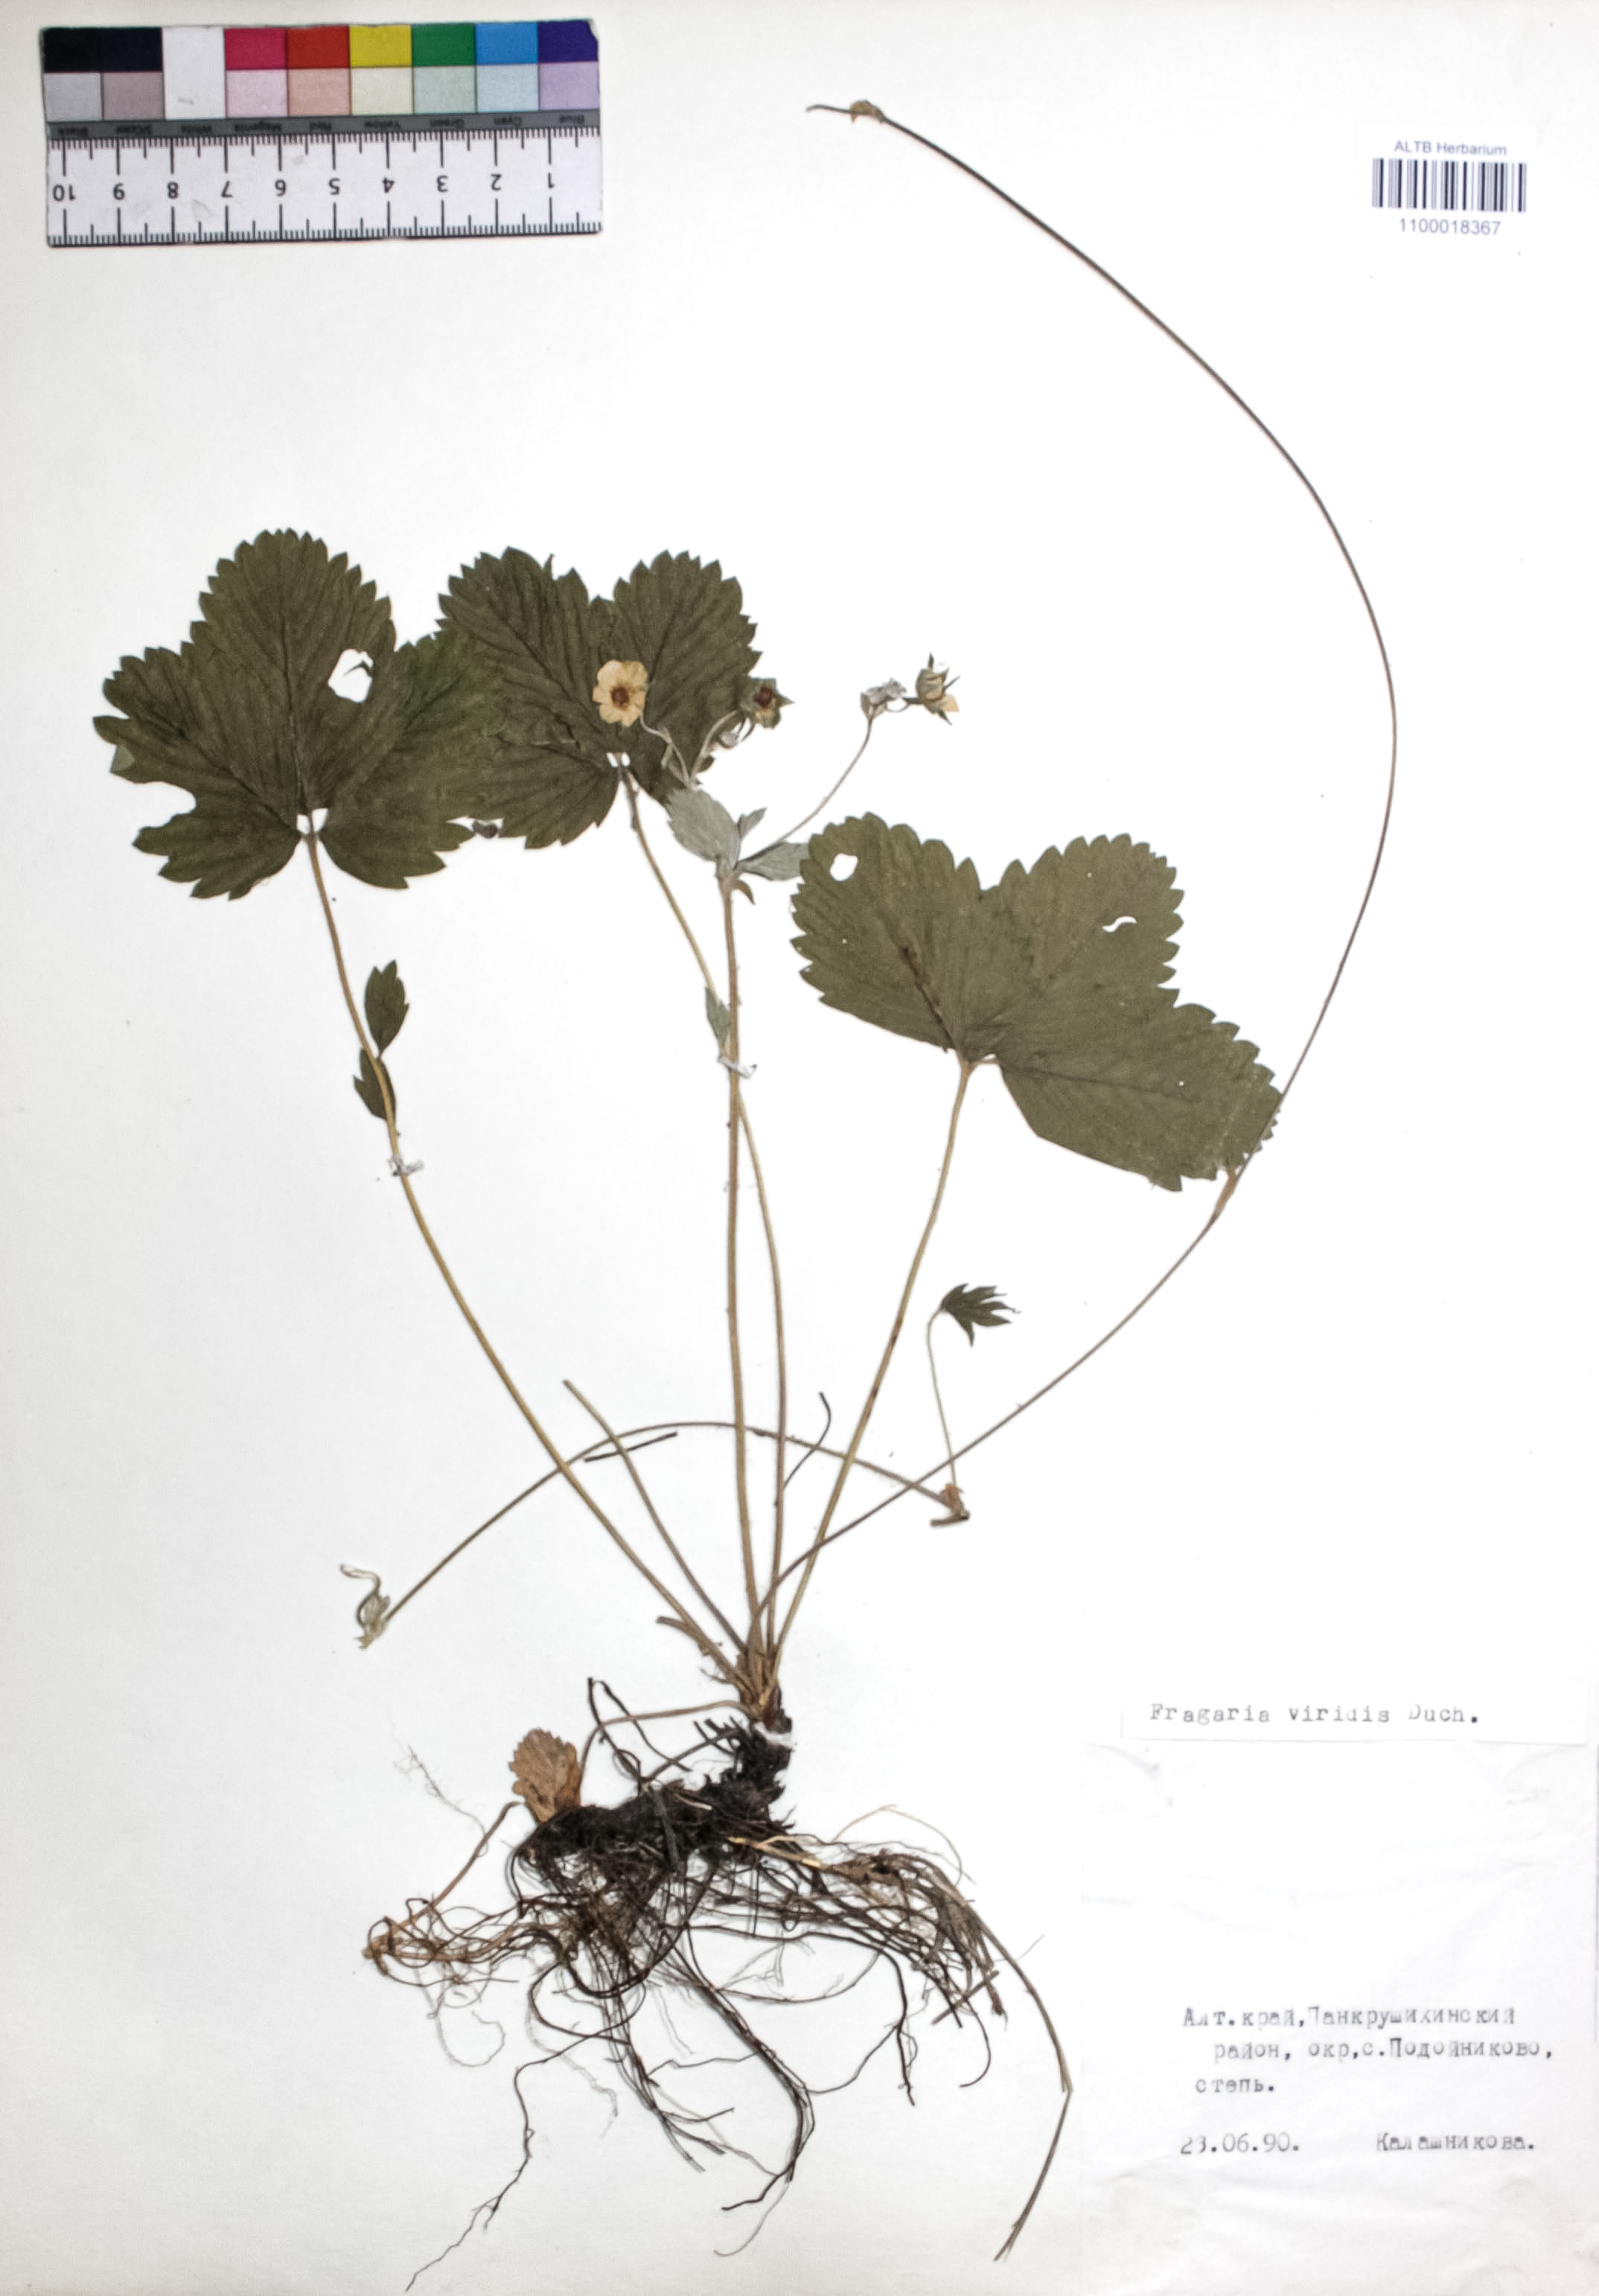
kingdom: Plantae
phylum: Tracheophyta
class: Magnoliopsida
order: Rosales
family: Rosaceae
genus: Fragaria
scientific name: Fragaria viridis
